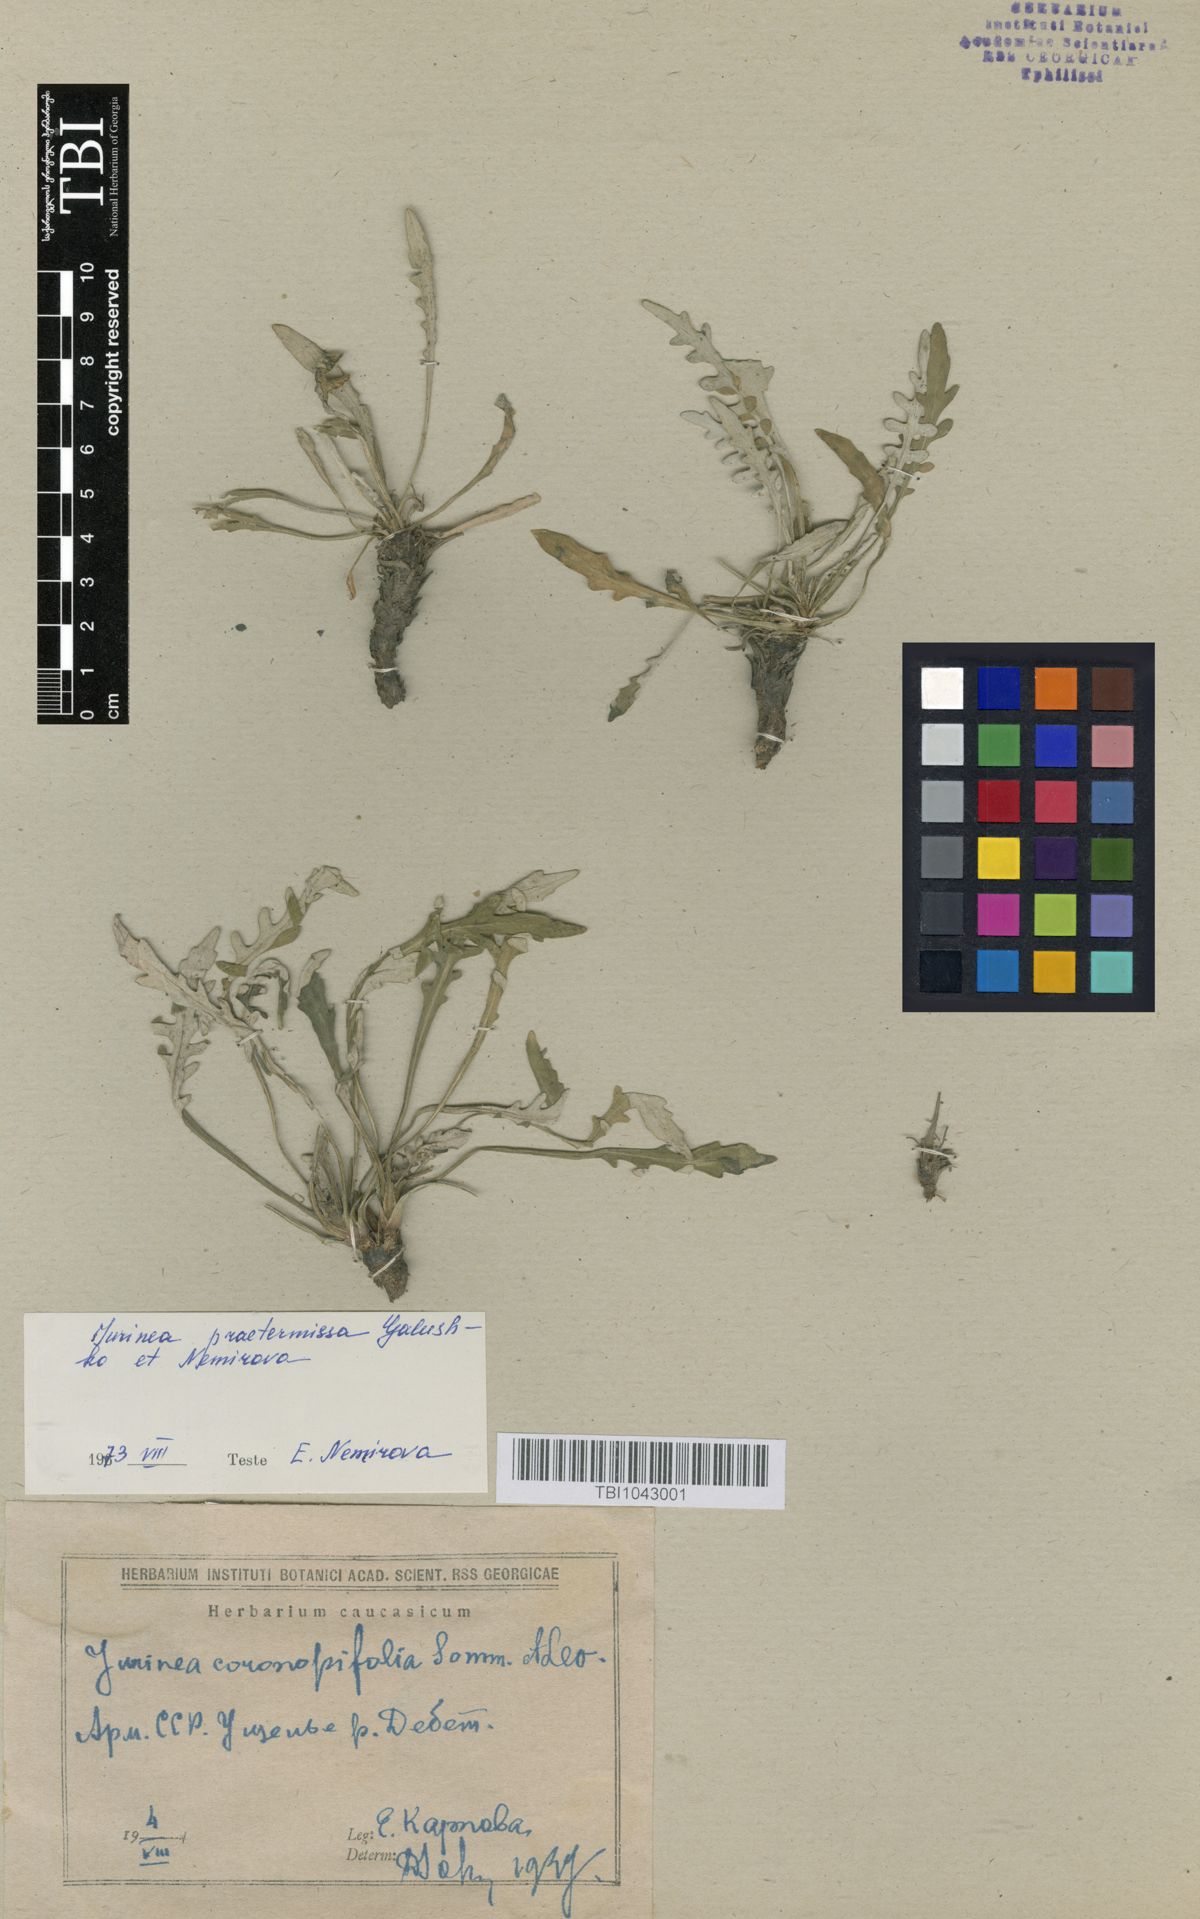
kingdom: Plantae
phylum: Tracheophyta
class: Magnoliopsida
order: Asterales
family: Asteraceae
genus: Jurinea
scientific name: Jurinea praetermissa
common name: Neglected jurinea
